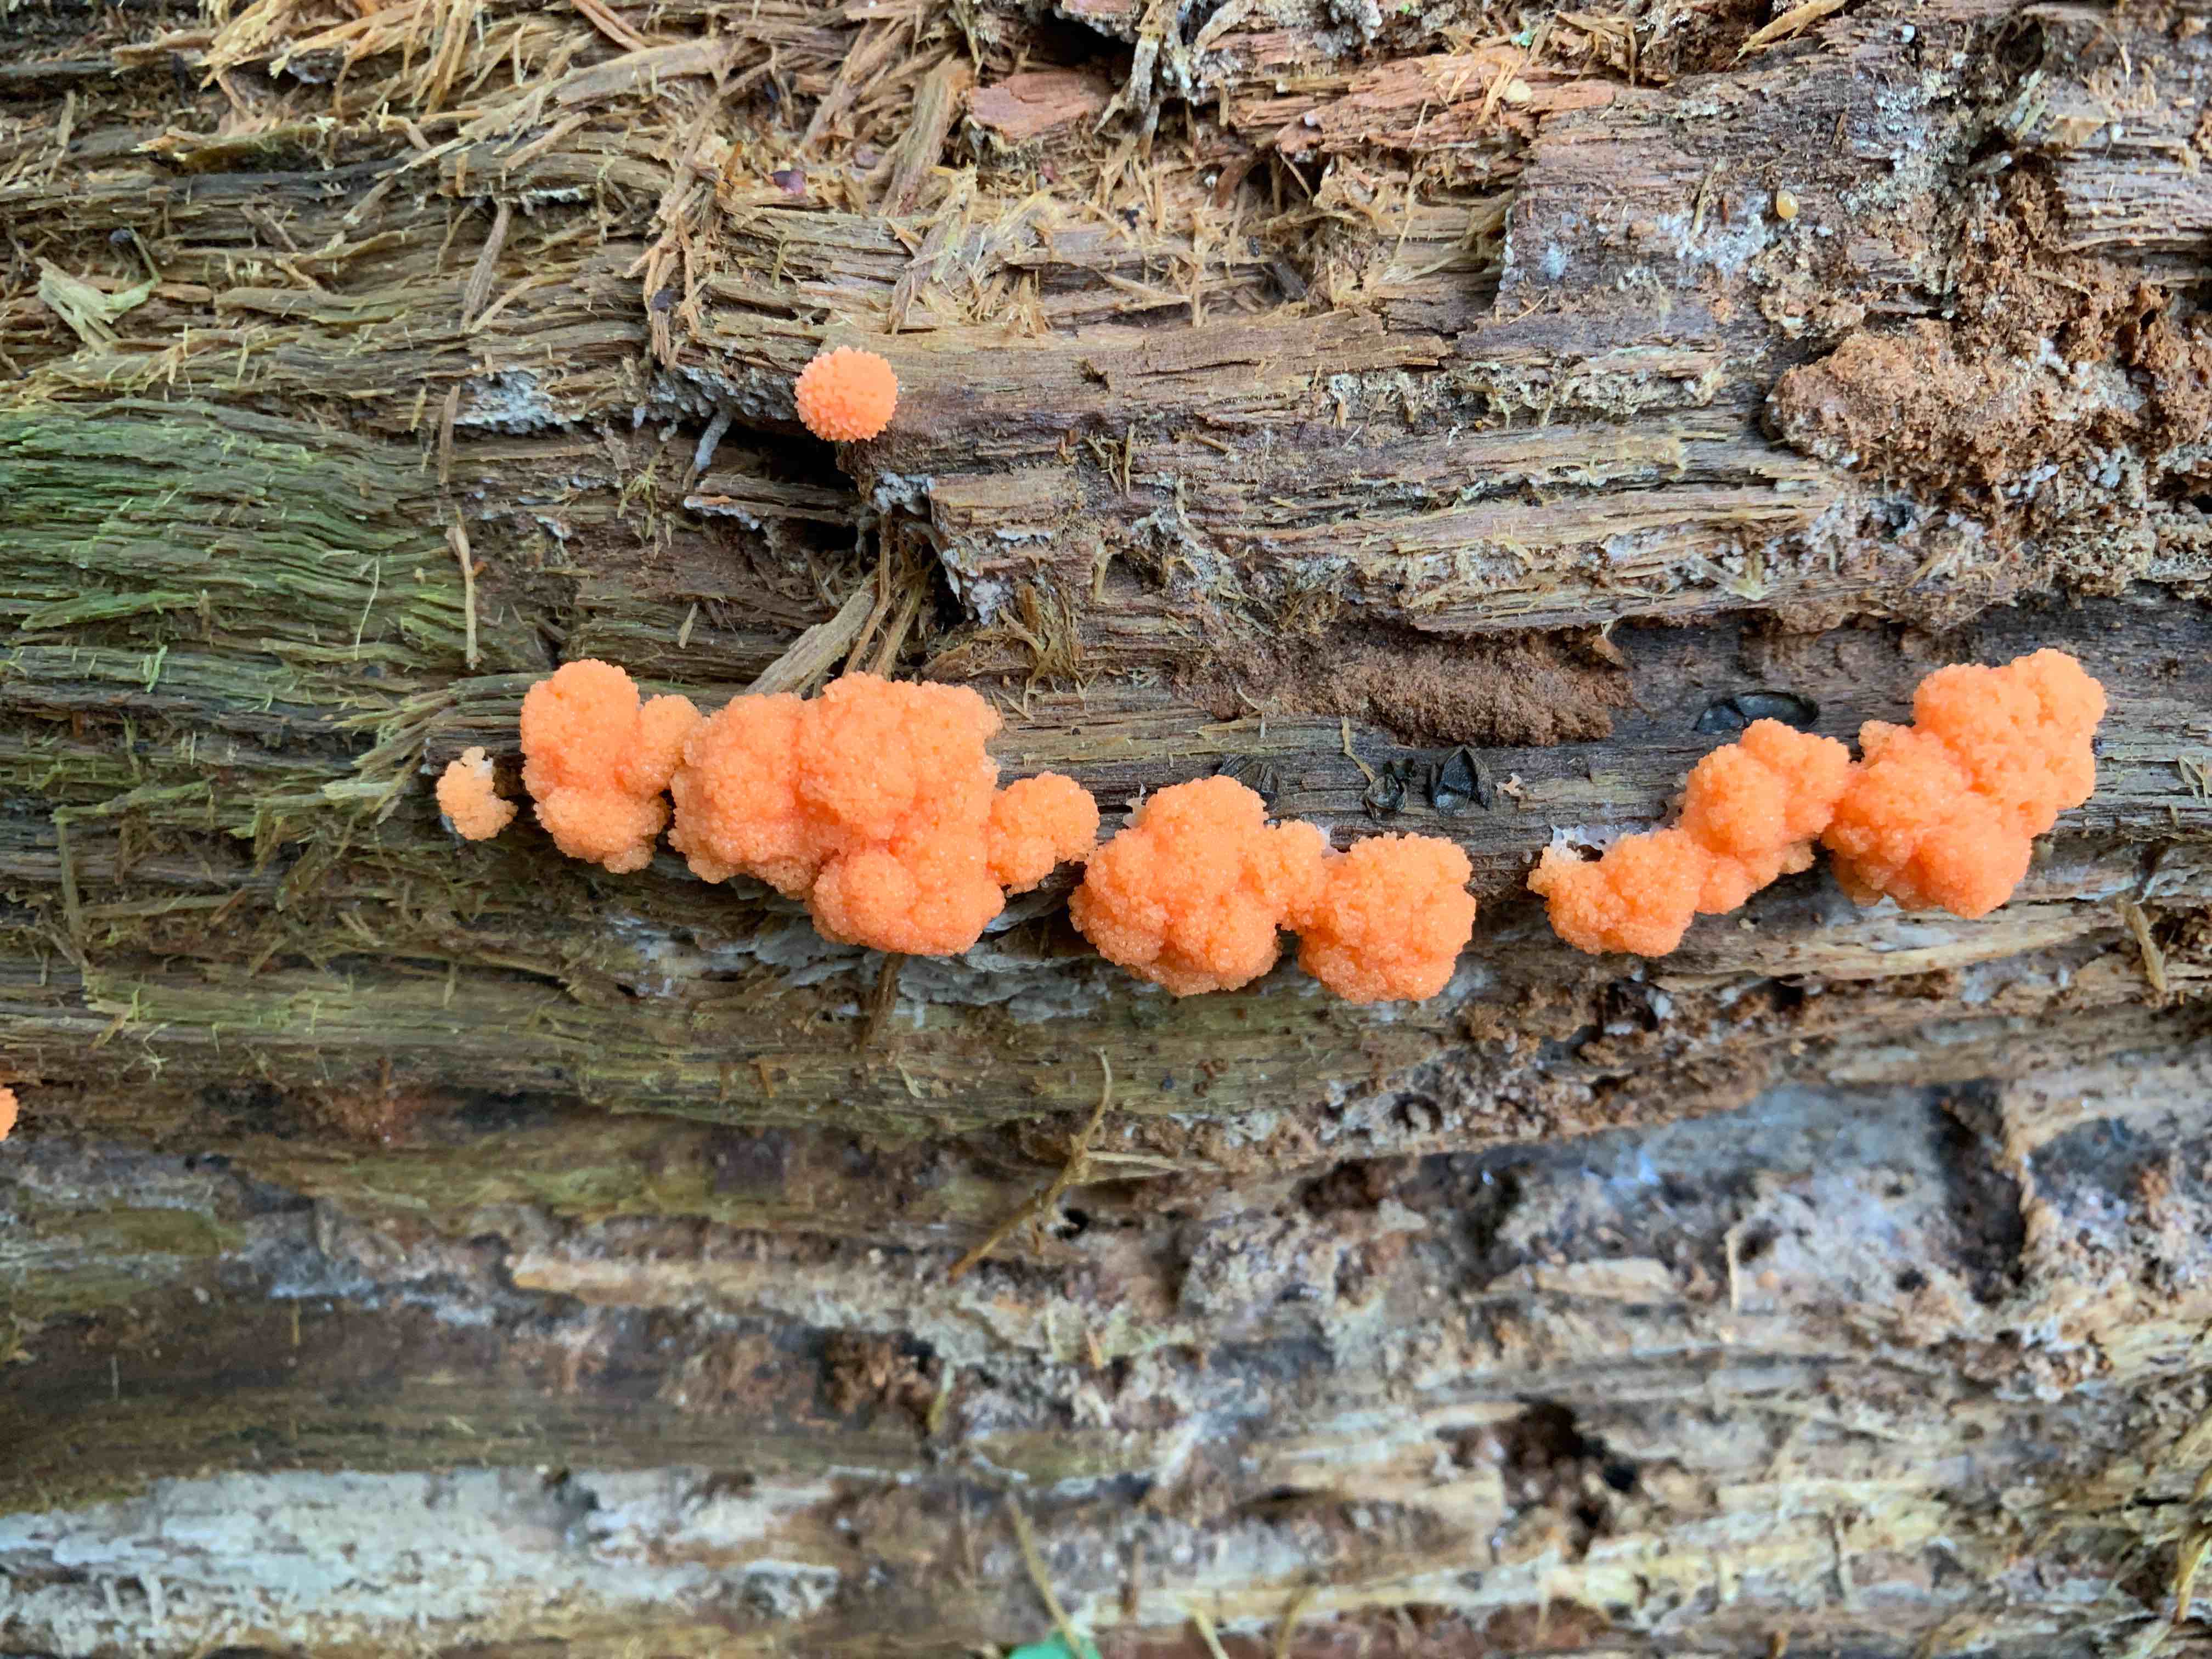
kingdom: Protozoa
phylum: Mycetozoa
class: Myxomycetes
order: Cribrariales
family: Tubiferaceae
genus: Tubifera
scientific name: Tubifera
